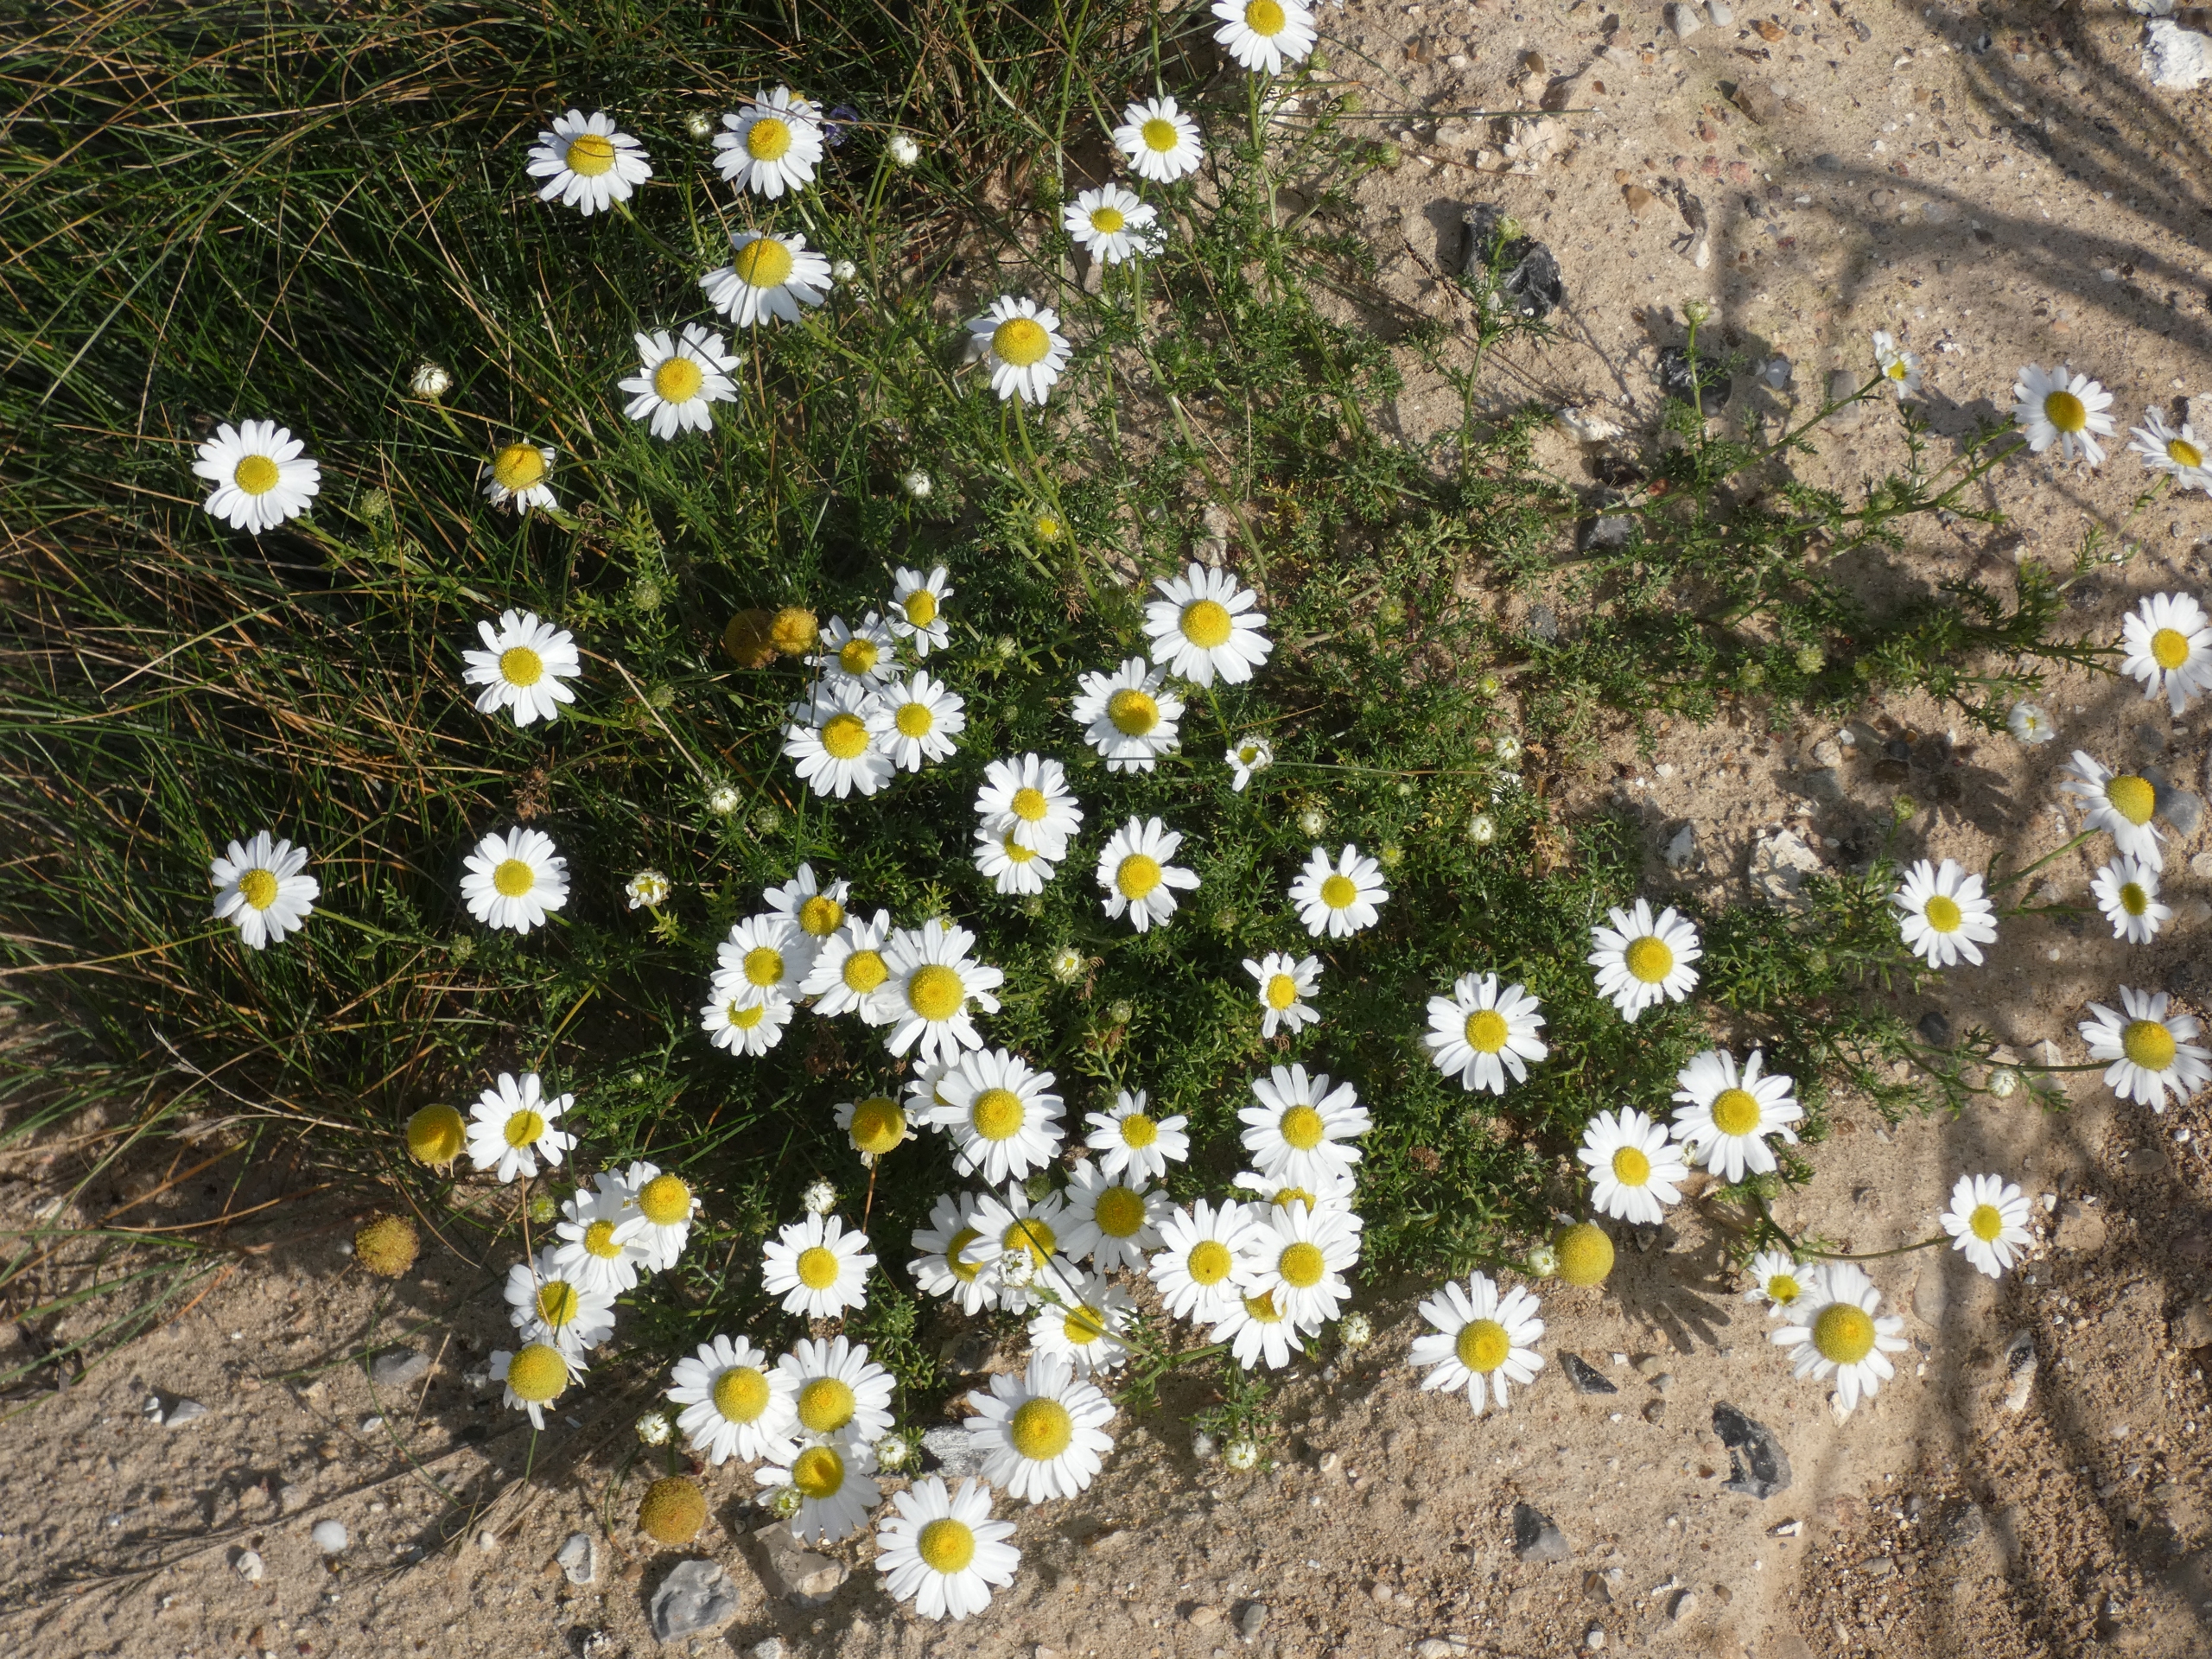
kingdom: Plantae
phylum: Tracheophyta
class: Magnoliopsida
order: Asterales
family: Asteraceae
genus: Tripleurospermum
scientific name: Tripleurospermum maritimum
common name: Strand-kamille
